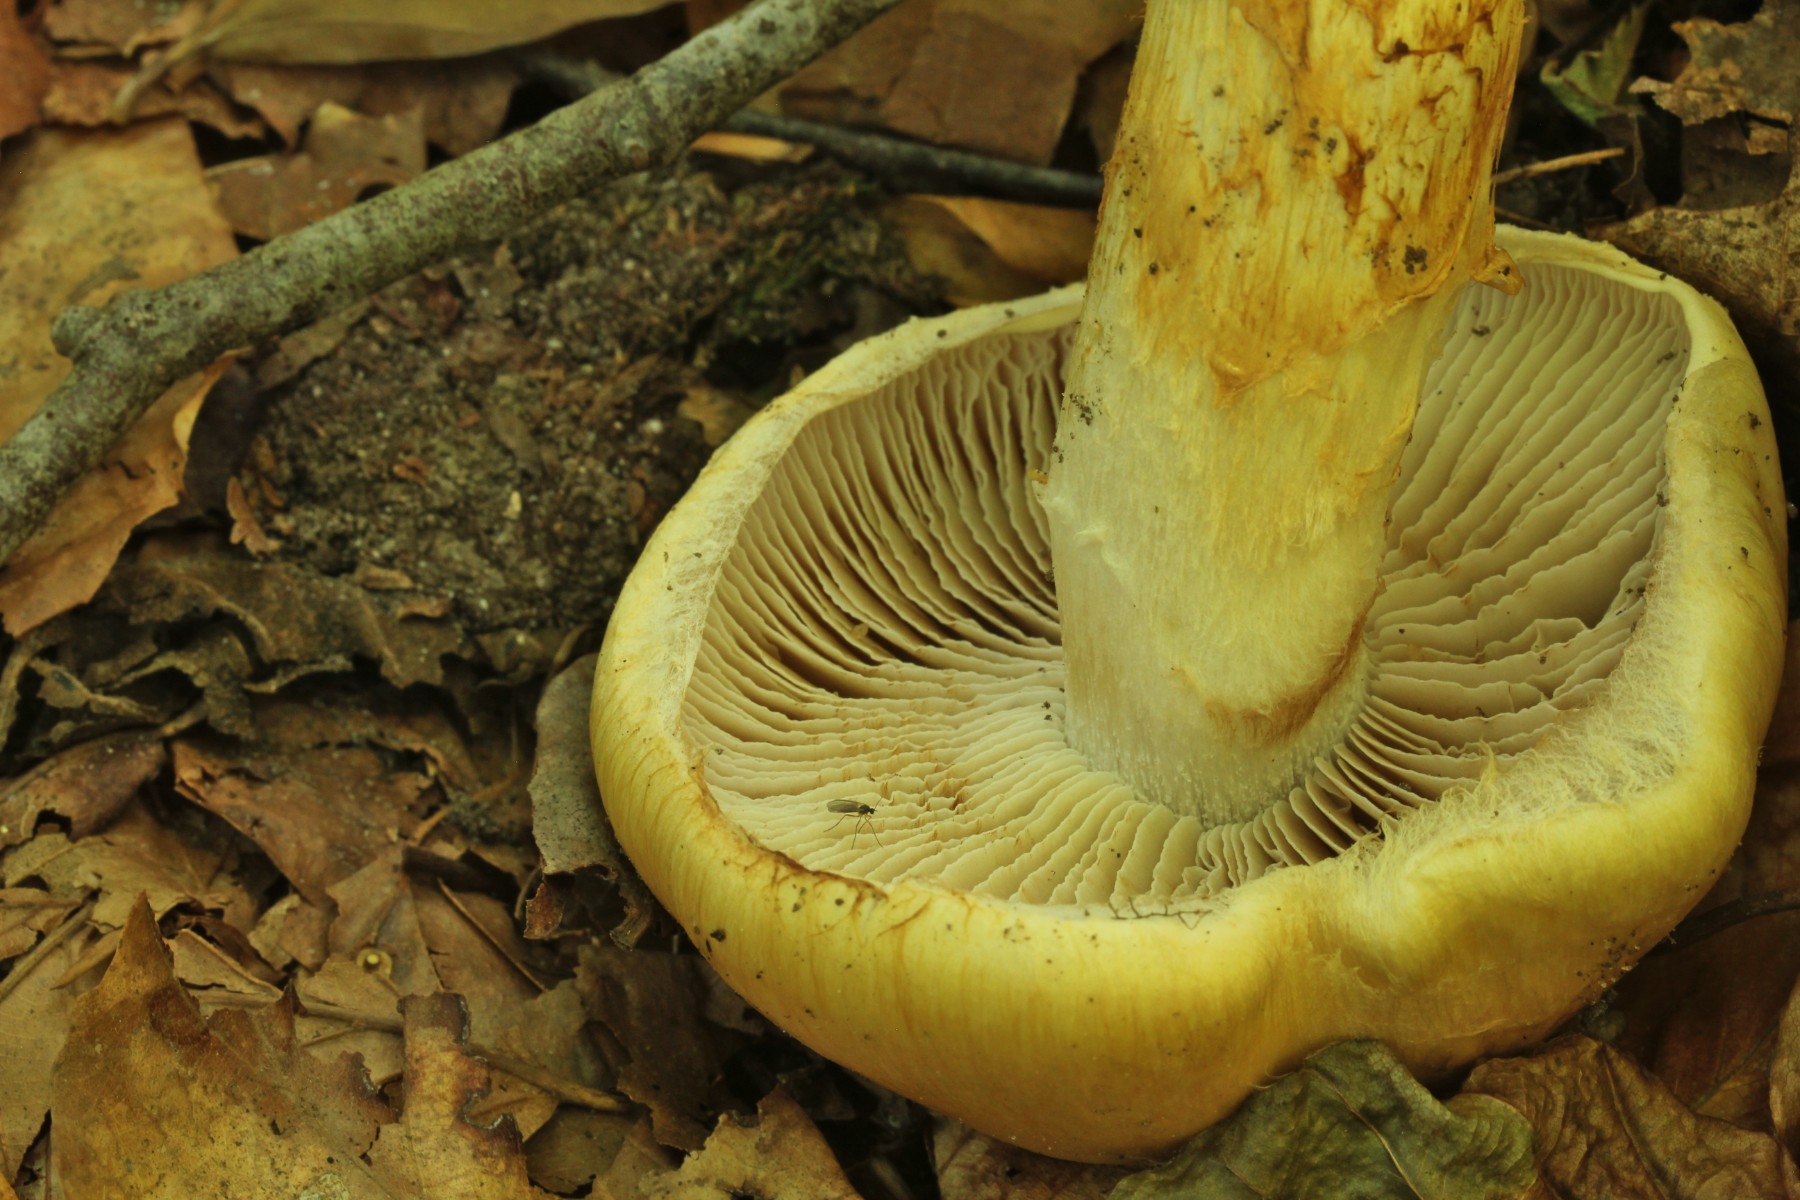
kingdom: Fungi
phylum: Basidiomycota
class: Agaricomycetes
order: Agaricales
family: Cortinariaceae
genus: Phlegmacium
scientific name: Phlegmacium triumphans
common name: gulbæltet slørhat
